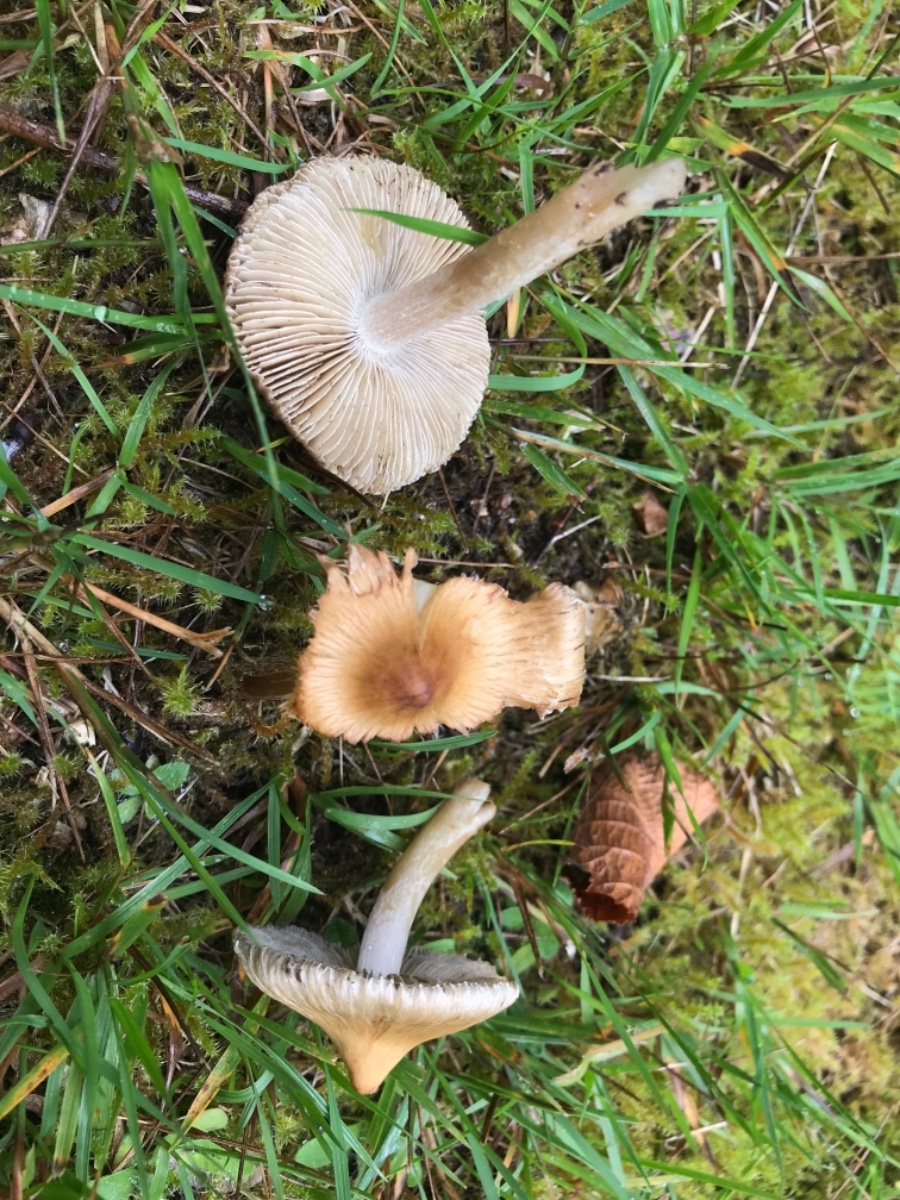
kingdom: Fungi
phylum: Basidiomycota
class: Agaricomycetes
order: Agaricales
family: Inocybaceae
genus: Inocybe
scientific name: Inocybe
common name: trævlhat
